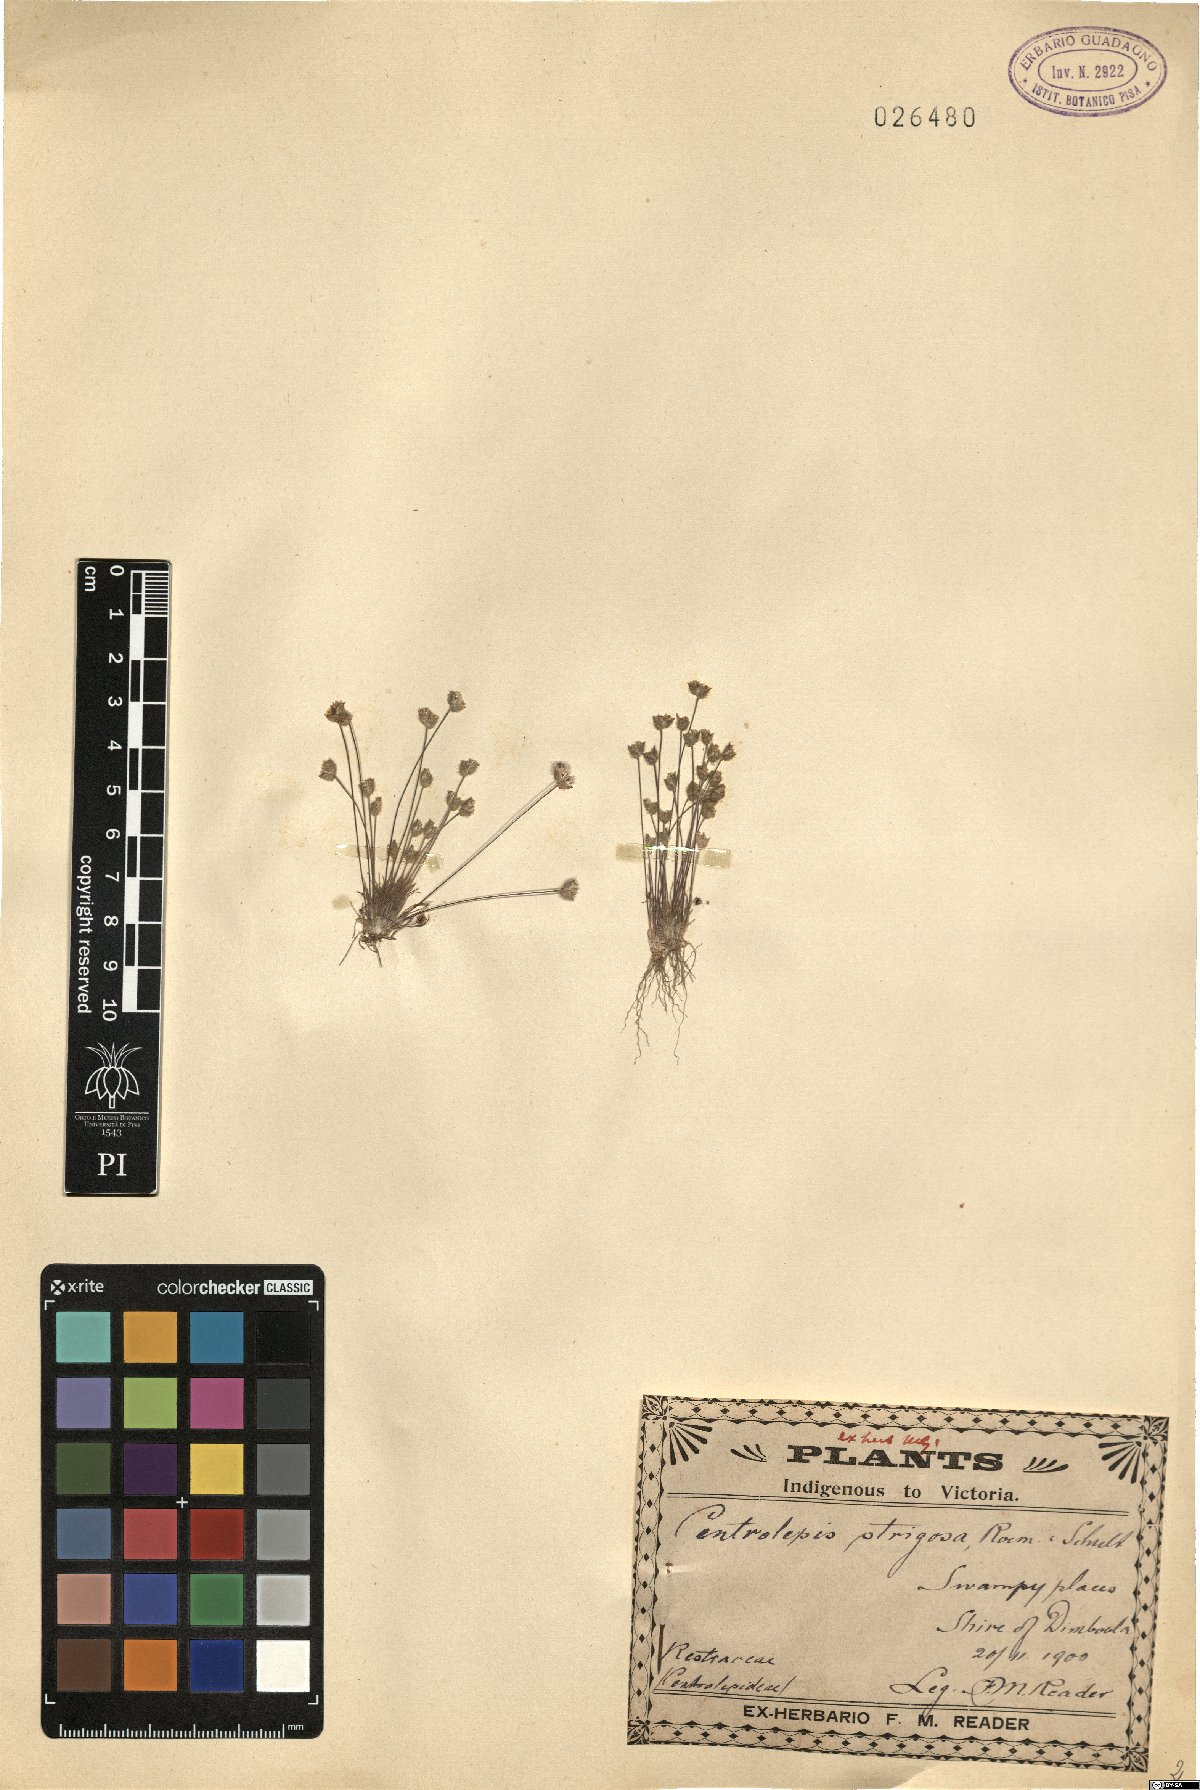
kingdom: Plantae
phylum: Tracheophyta
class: Liliopsida
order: Poales
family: Restionaceae
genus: Centrolepis
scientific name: Centrolepis strigosa
